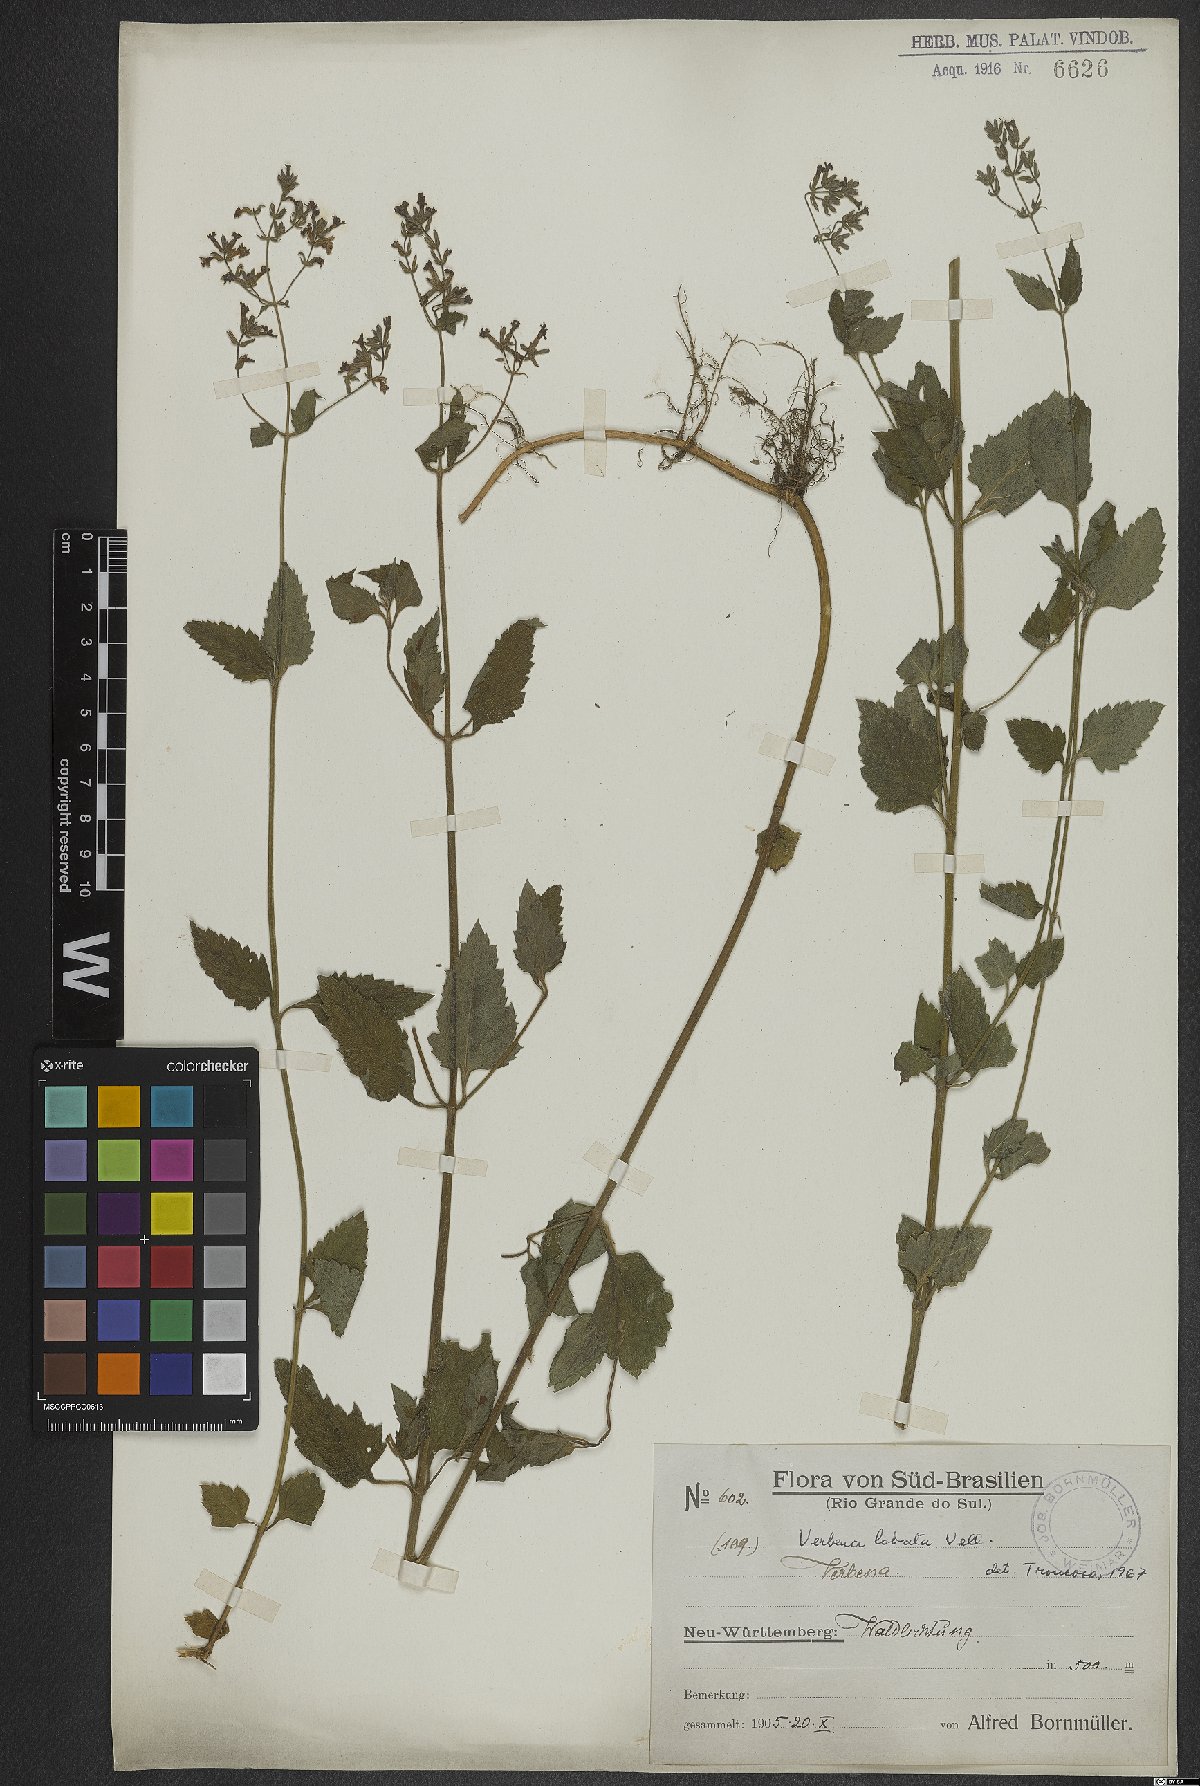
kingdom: Plantae
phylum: Tracheophyta
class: Magnoliopsida
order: Lamiales
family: Verbenaceae
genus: Verbena
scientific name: Verbena lobata
